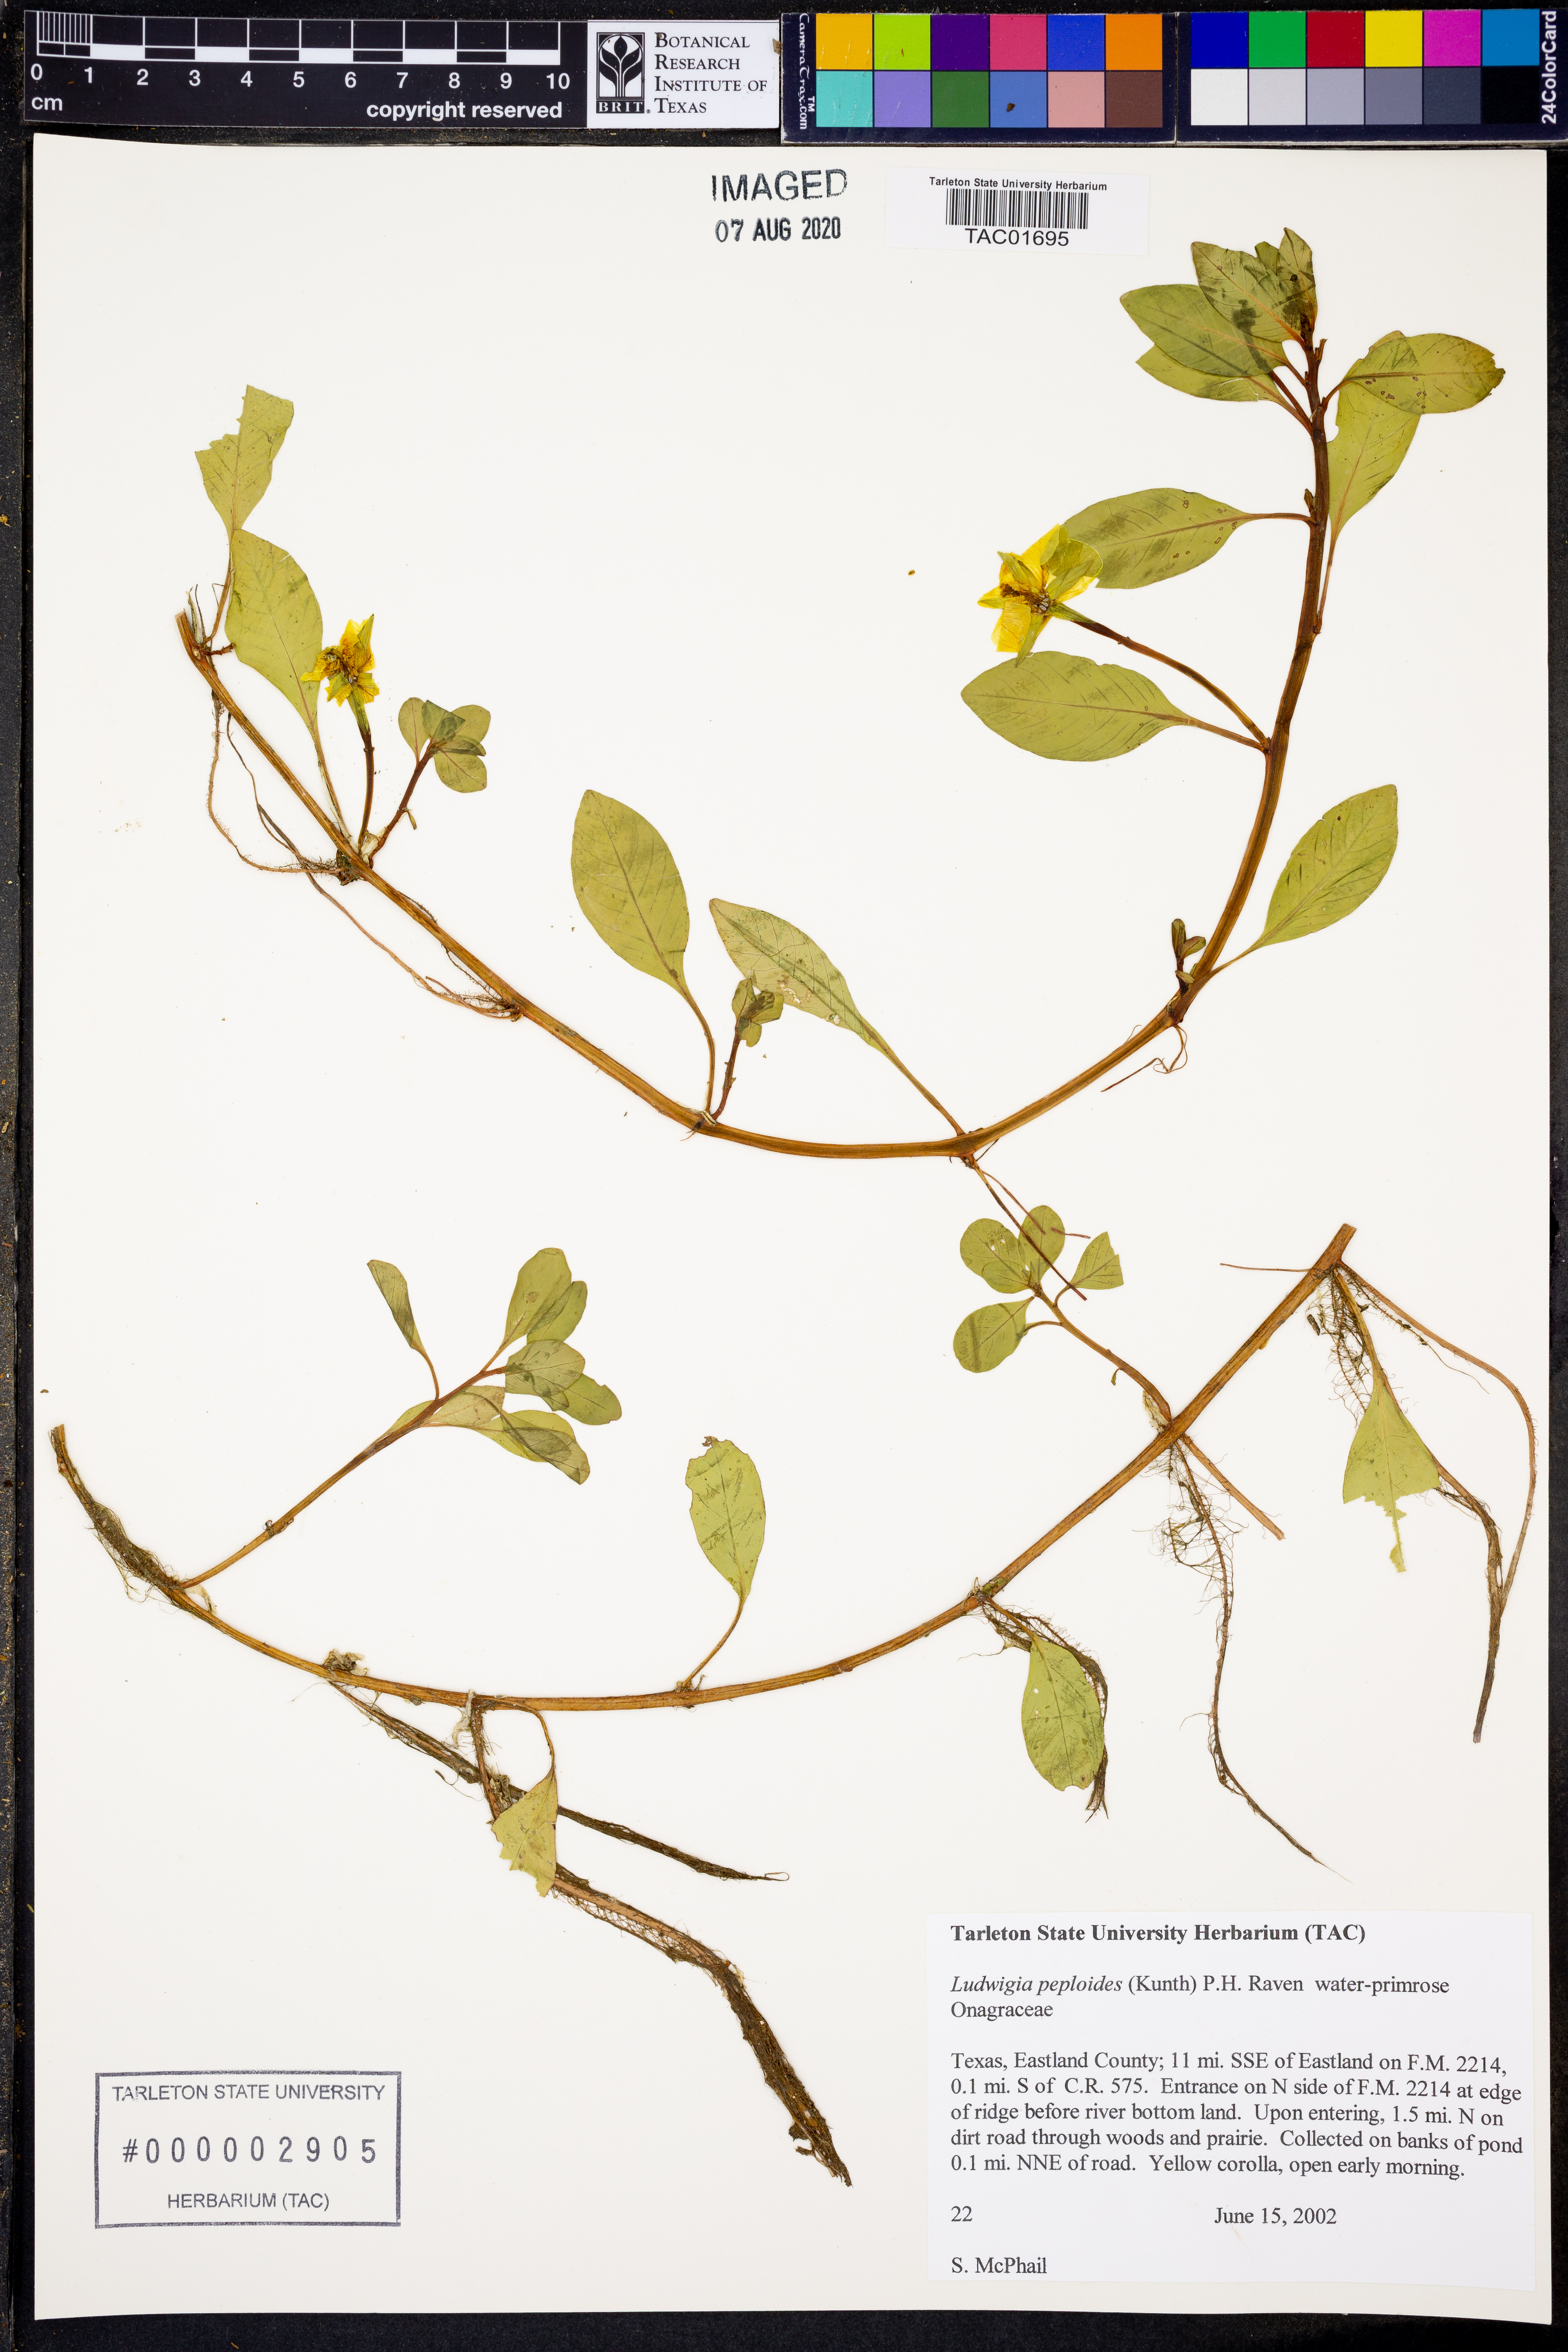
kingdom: Plantae
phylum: Tracheophyta
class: Magnoliopsida
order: Myrtales
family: Onagraceae
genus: Ludwigia
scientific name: Ludwigia peploides
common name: Floating primrose-willow
